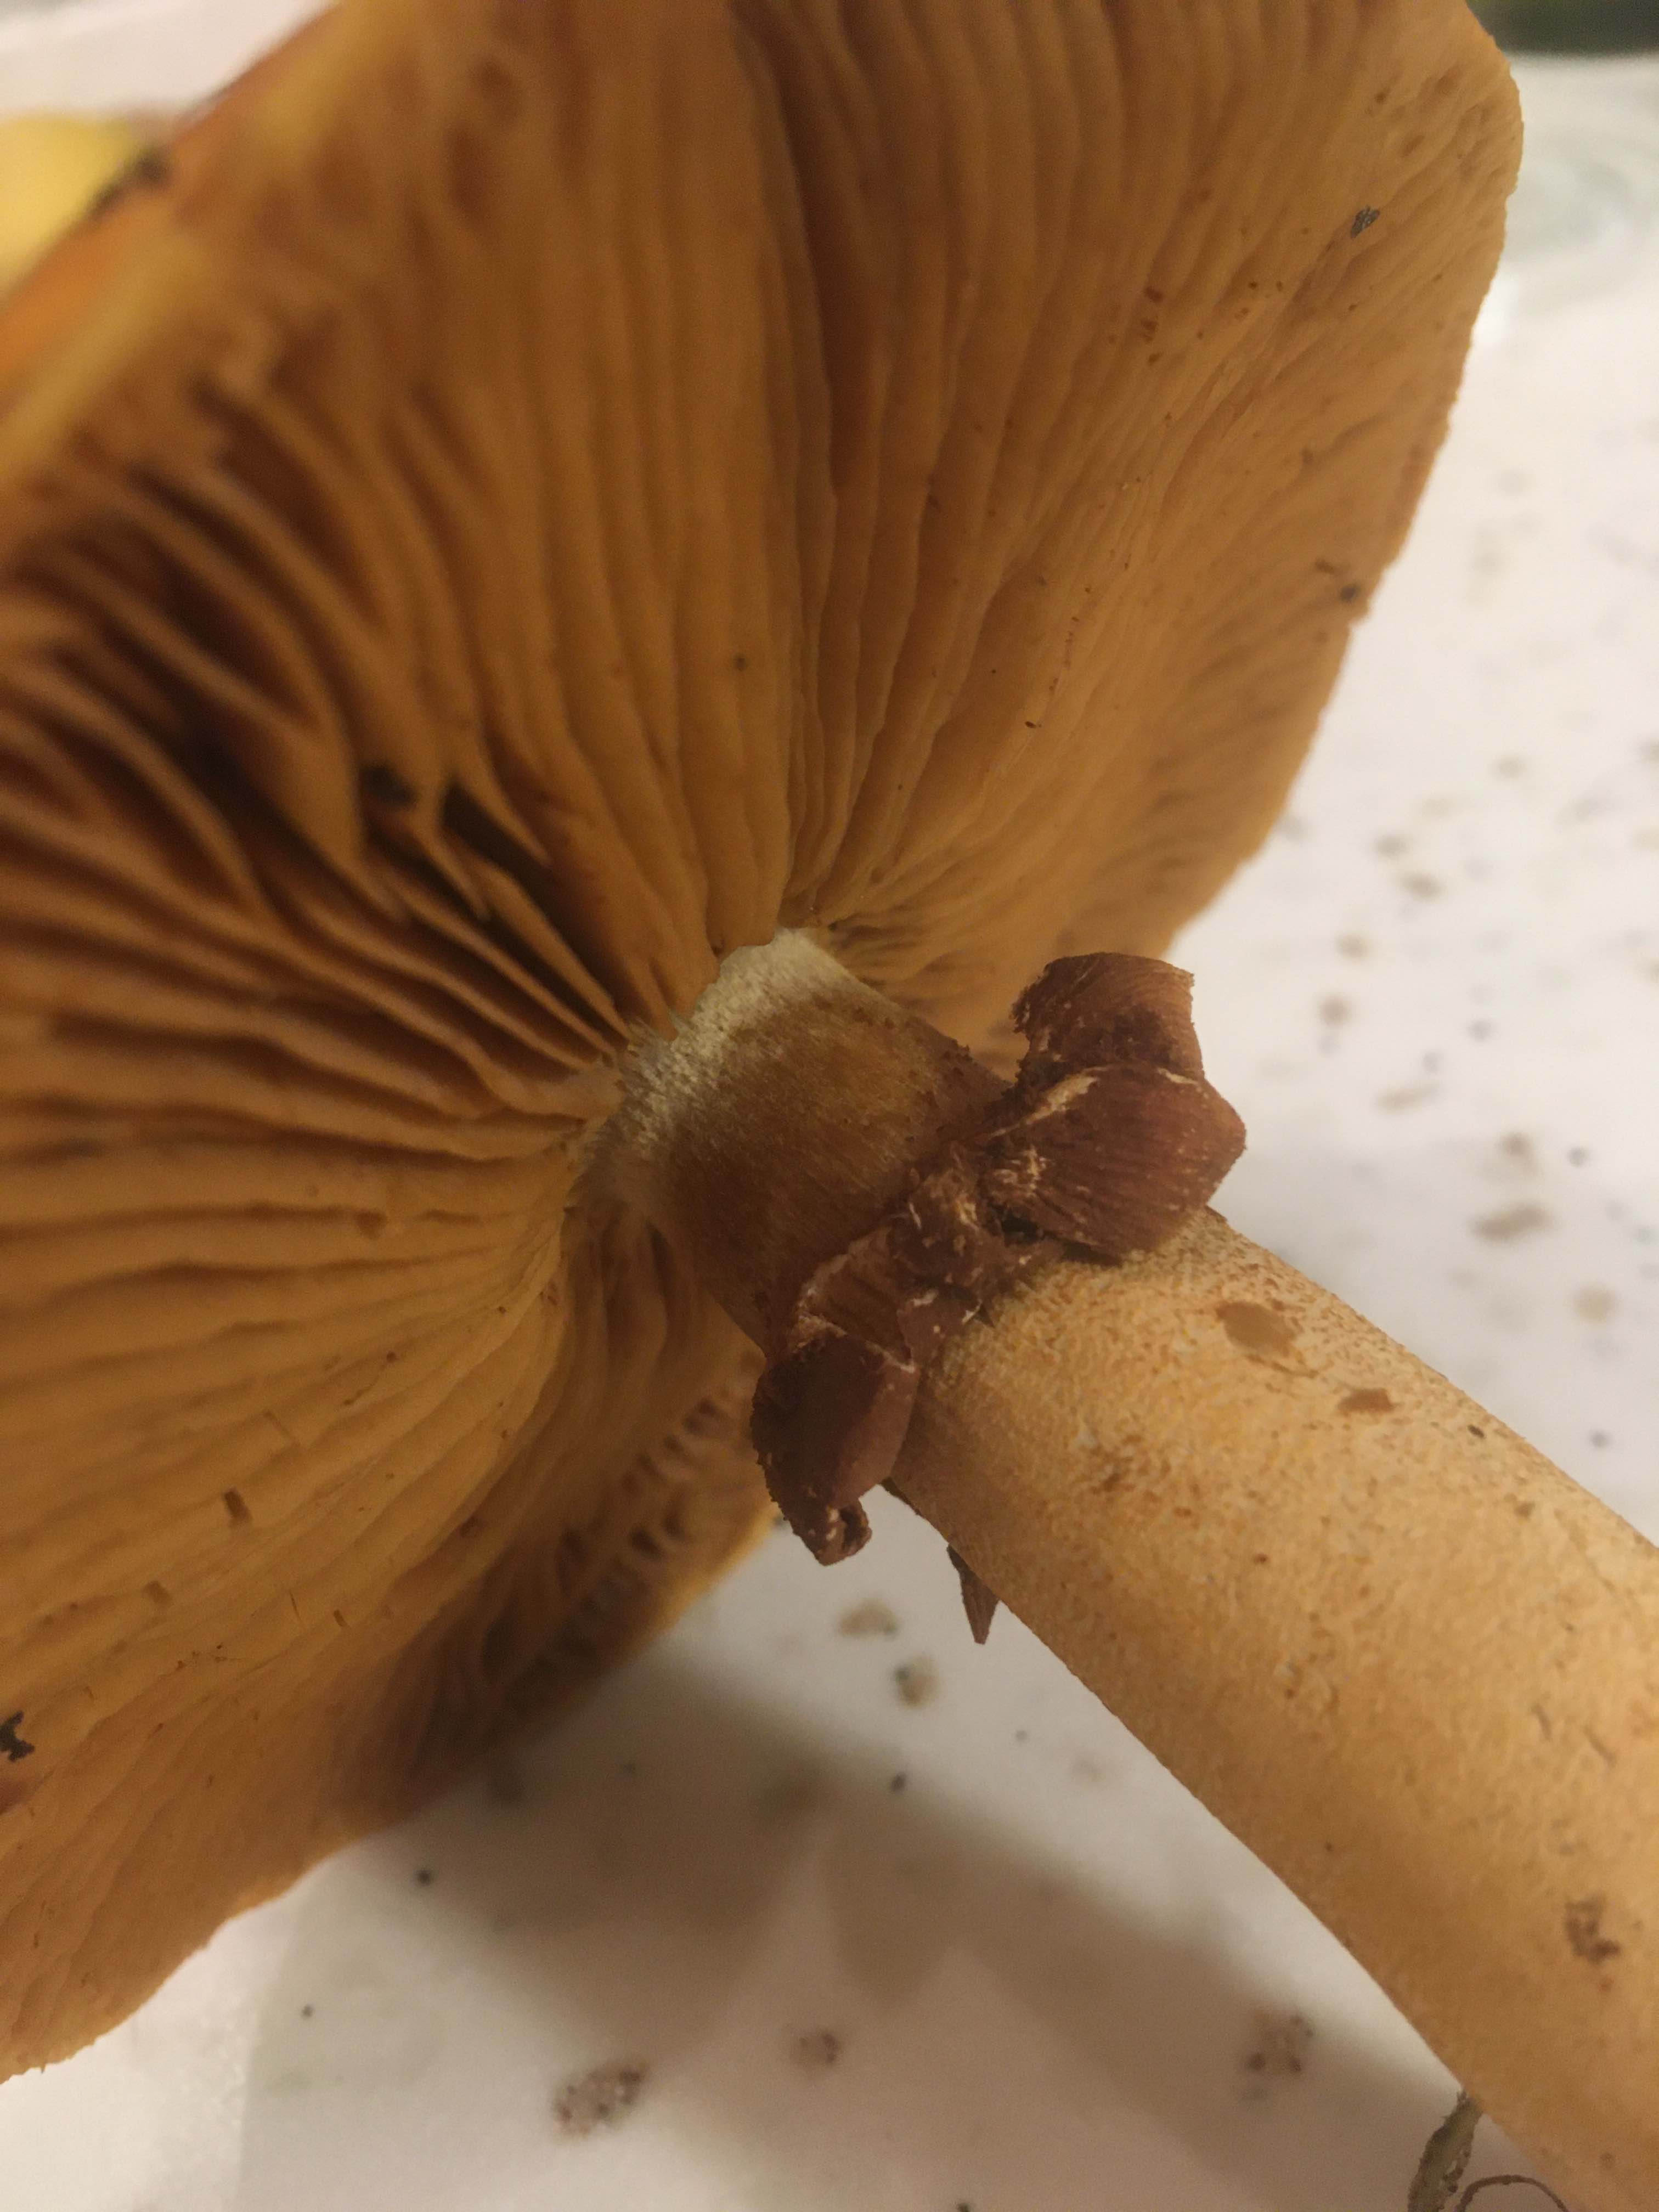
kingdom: Fungi
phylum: Basidiomycota
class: Agaricomycetes
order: Agaricales
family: Tricholomataceae
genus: Phaeolepiota
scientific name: Phaeolepiota aurea
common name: gyldenhat
